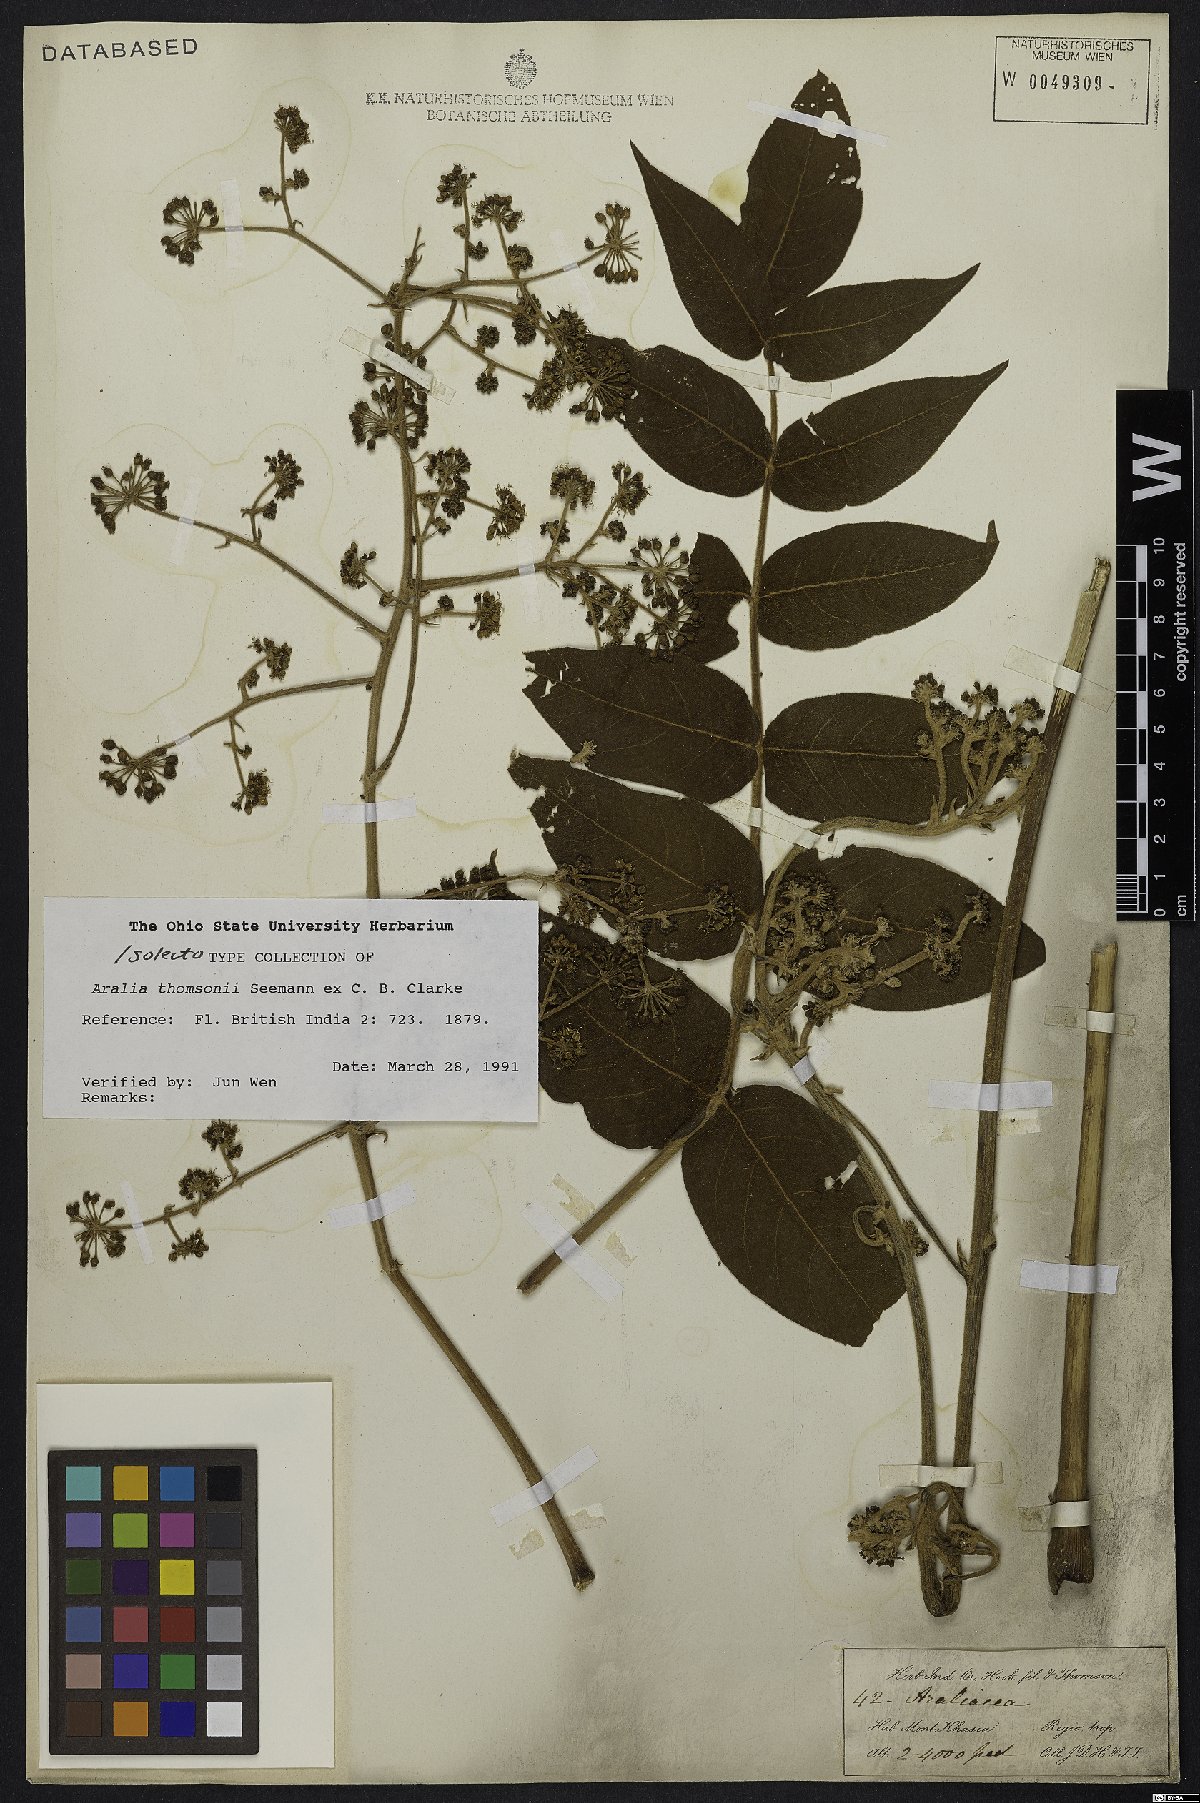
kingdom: Plantae
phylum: Tracheophyta
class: Magnoliopsida
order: Apiales
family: Araliaceae
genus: Aralia
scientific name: Aralia thomsonii
